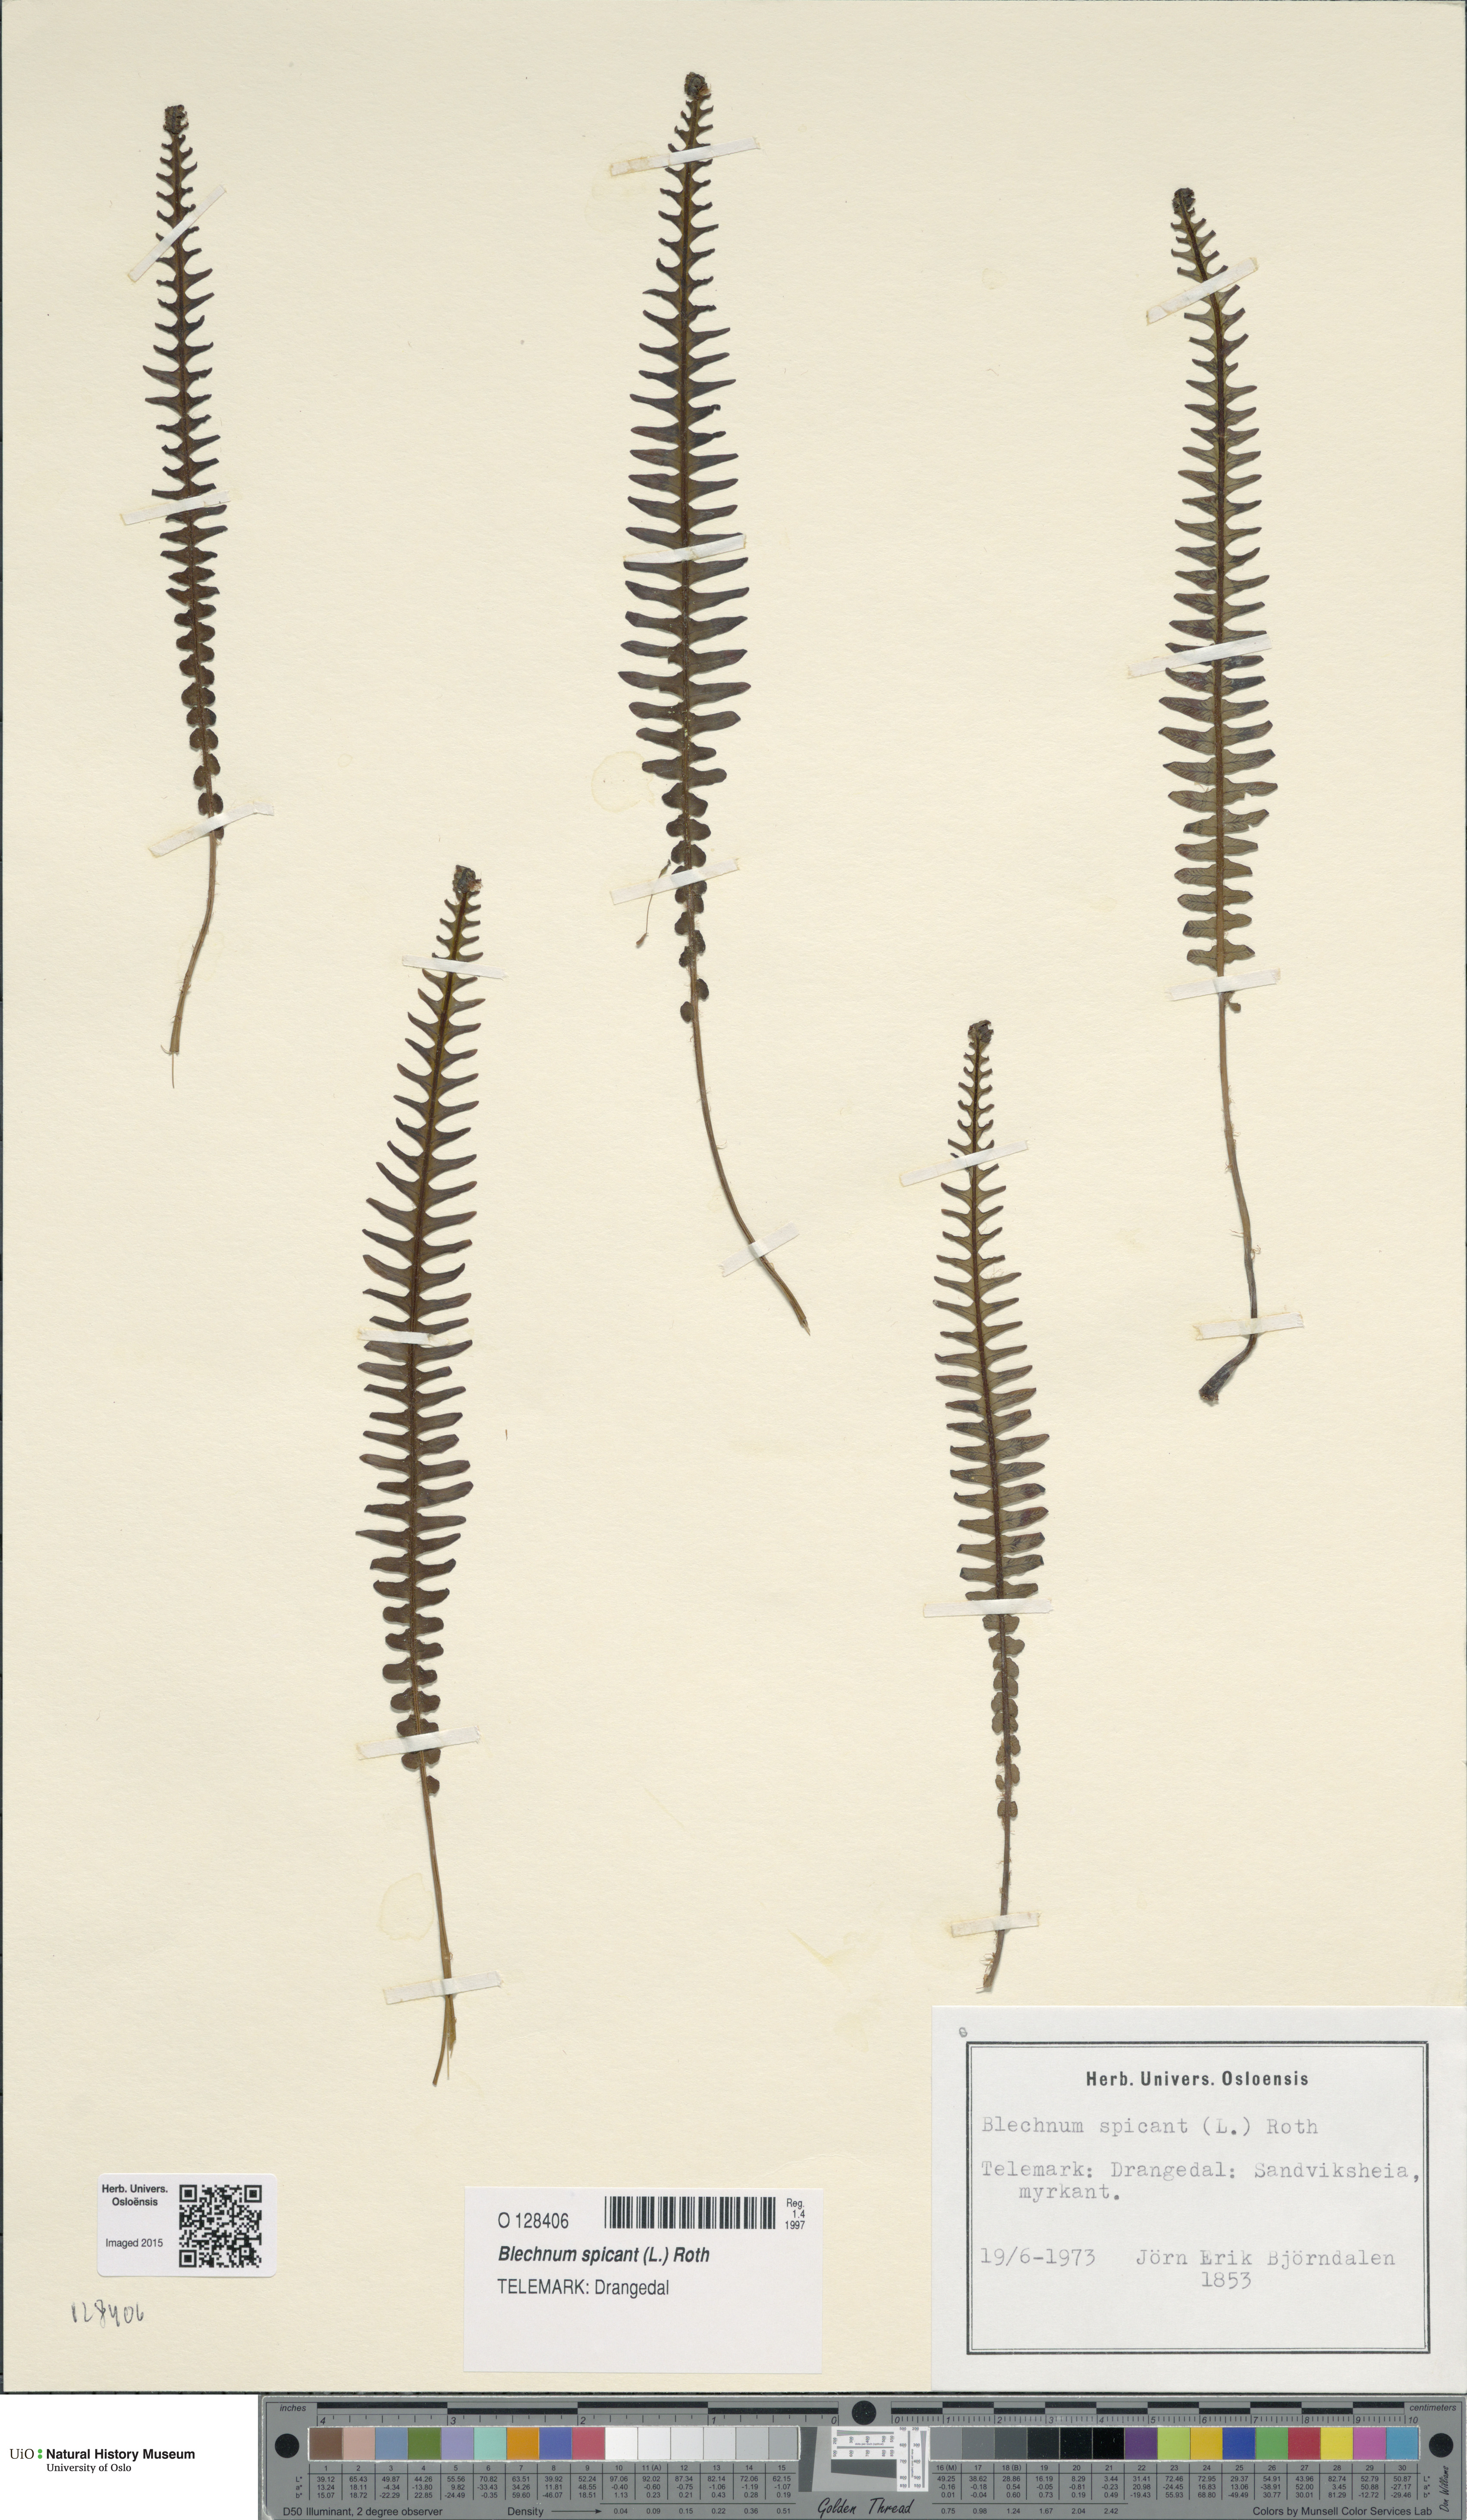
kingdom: Plantae
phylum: Tracheophyta
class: Polypodiopsida
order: Polypodiales
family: Blechnaceae
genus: Struthiopteris
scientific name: Struthiopteris spicant
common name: Deer fern
